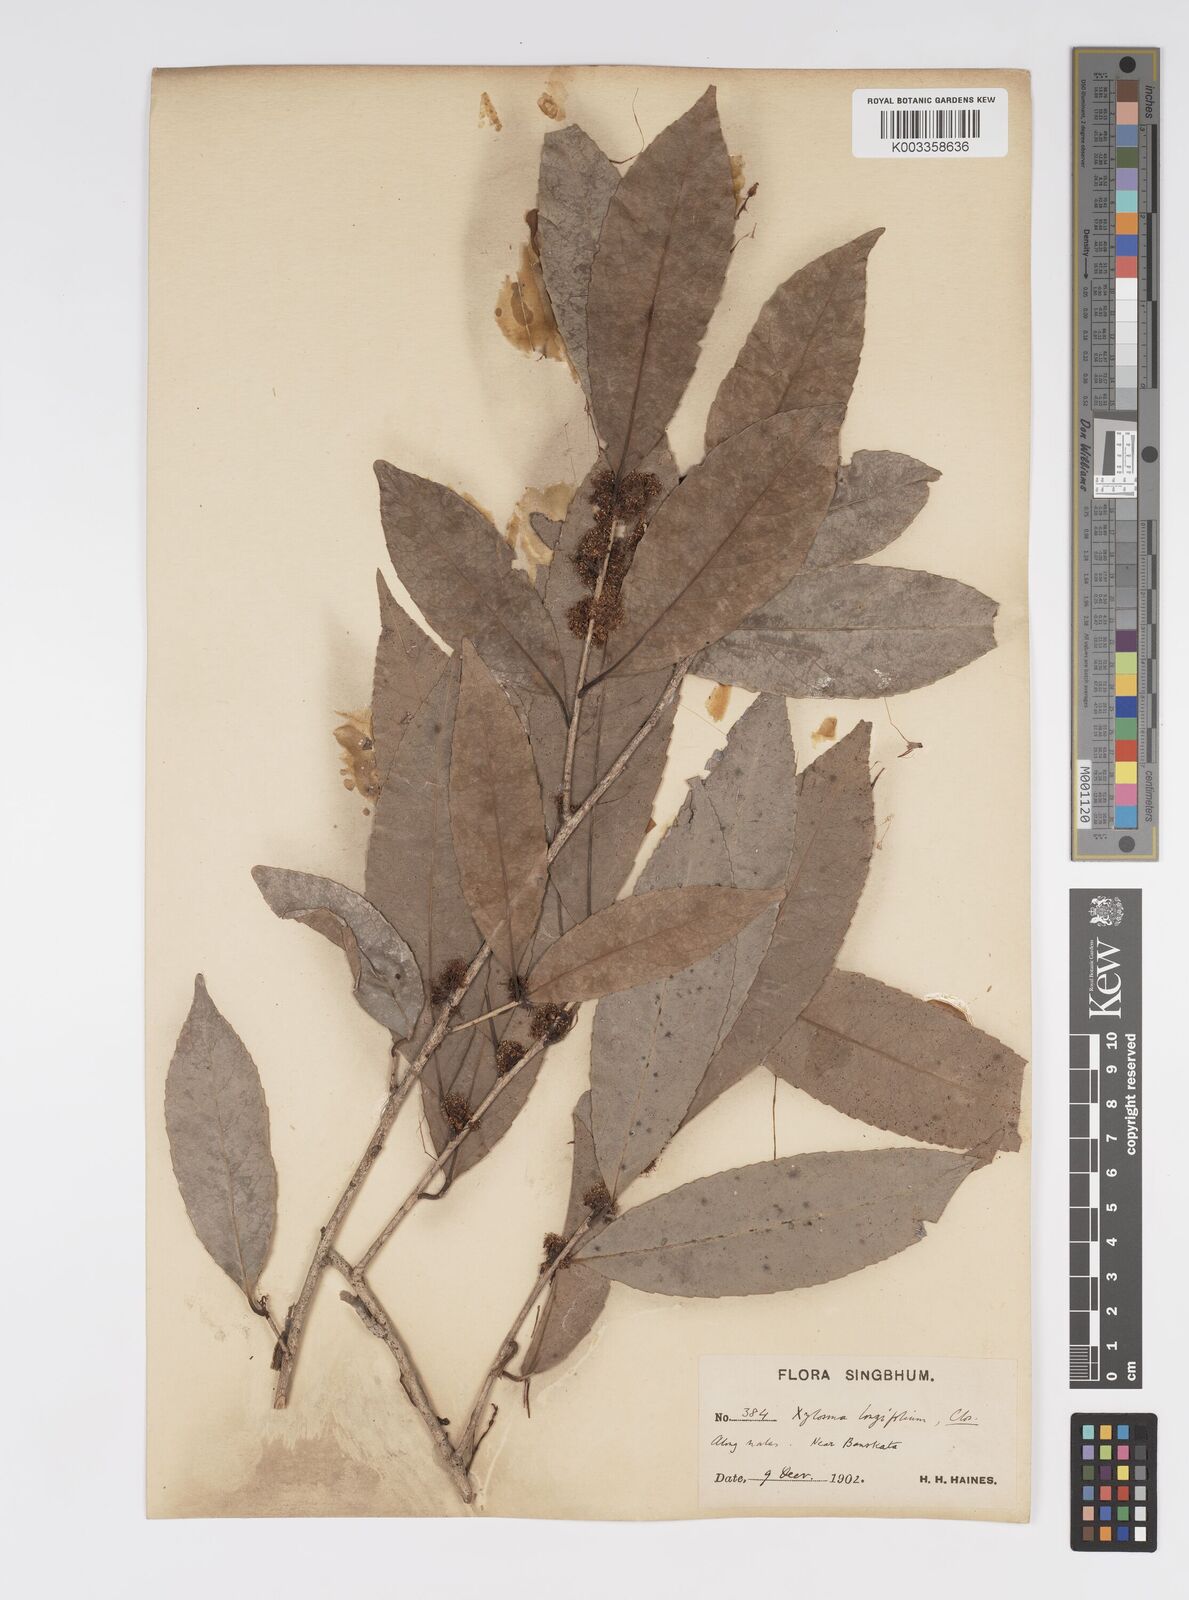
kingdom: Plantae
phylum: Tracheophyta
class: Magnoliopsida
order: Malpighiales
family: Salicaceae
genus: Xylosma
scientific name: Xylosma longifolia
